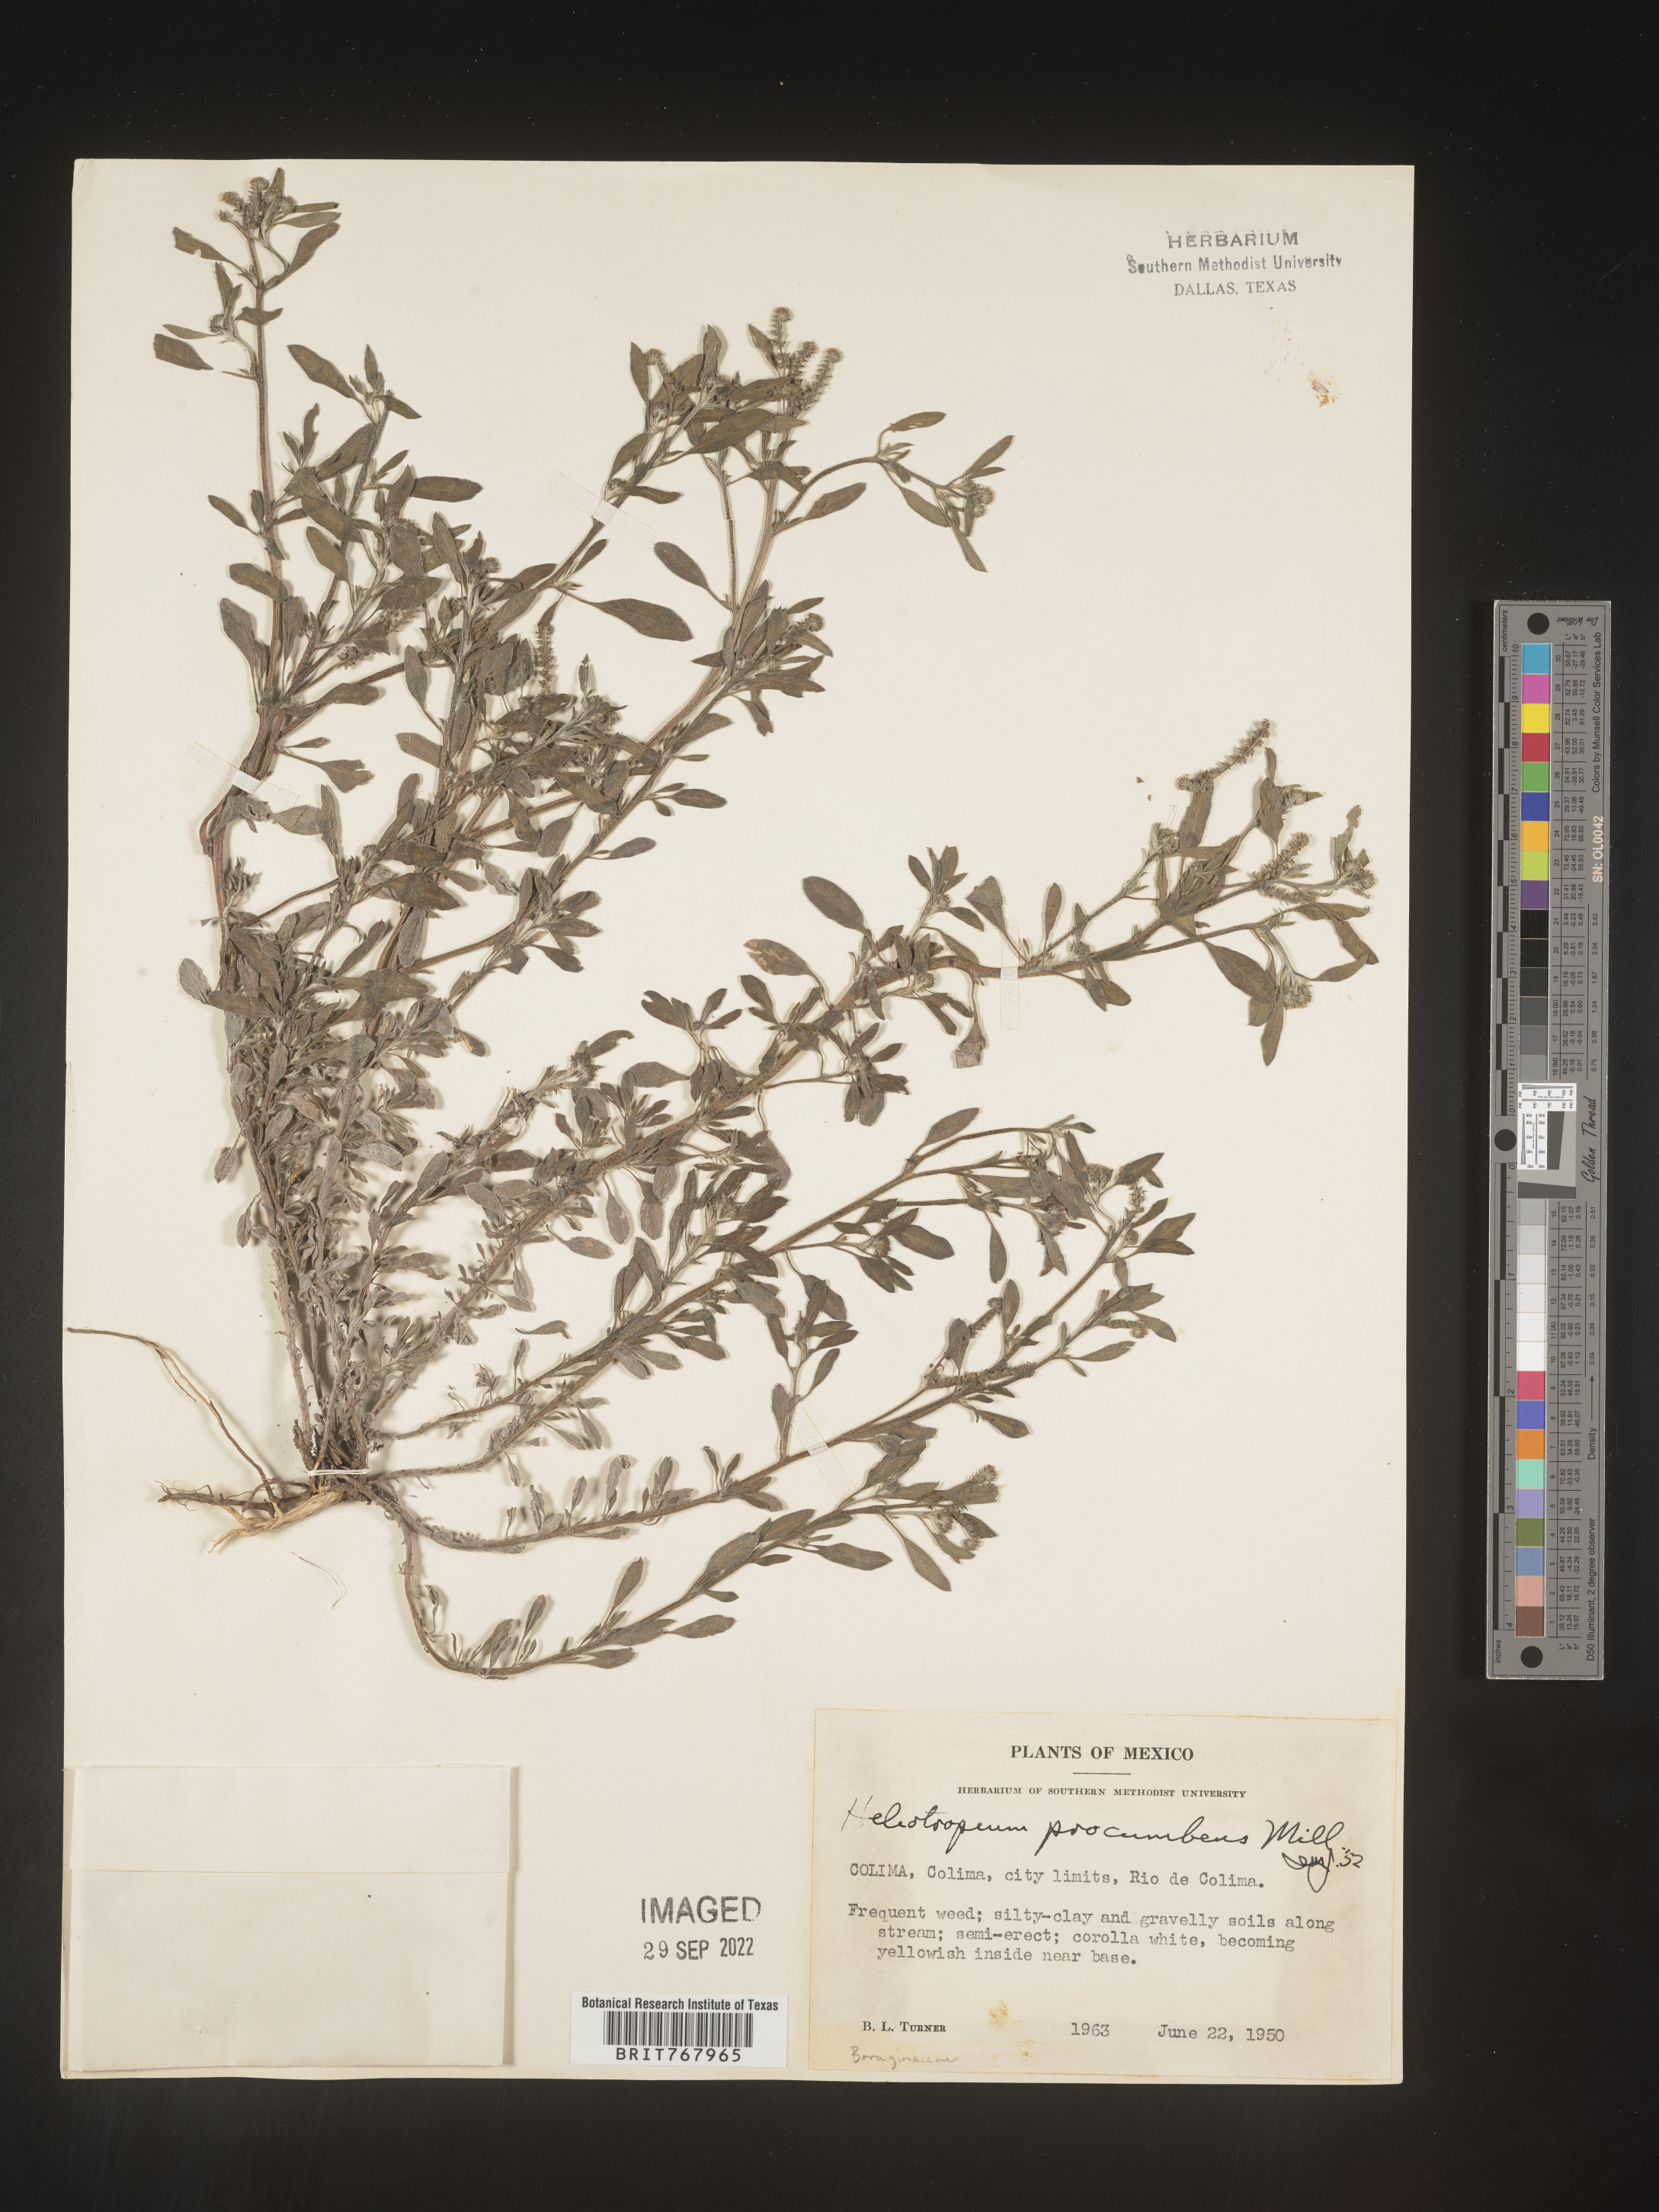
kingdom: Plantae
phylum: Tracheophyta
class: Magnoliopsida
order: Boraginales
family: Heliotropiaceae
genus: Heliotropium
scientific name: Heliotropium
